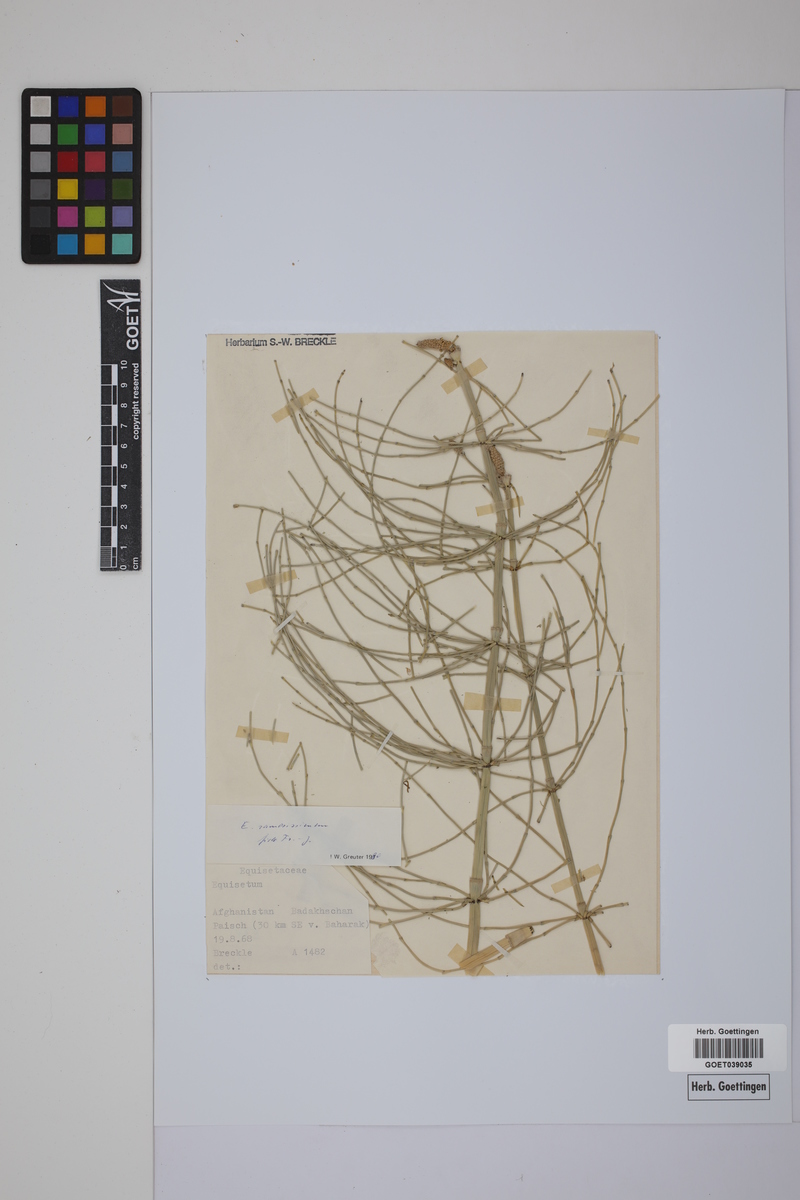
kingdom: Plantae
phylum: Tracheophyta
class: Polypodiopsida
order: Equisetales
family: Equisetaceae
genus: Equisetum
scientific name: Equisetum giganteum
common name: Giant horsetail
